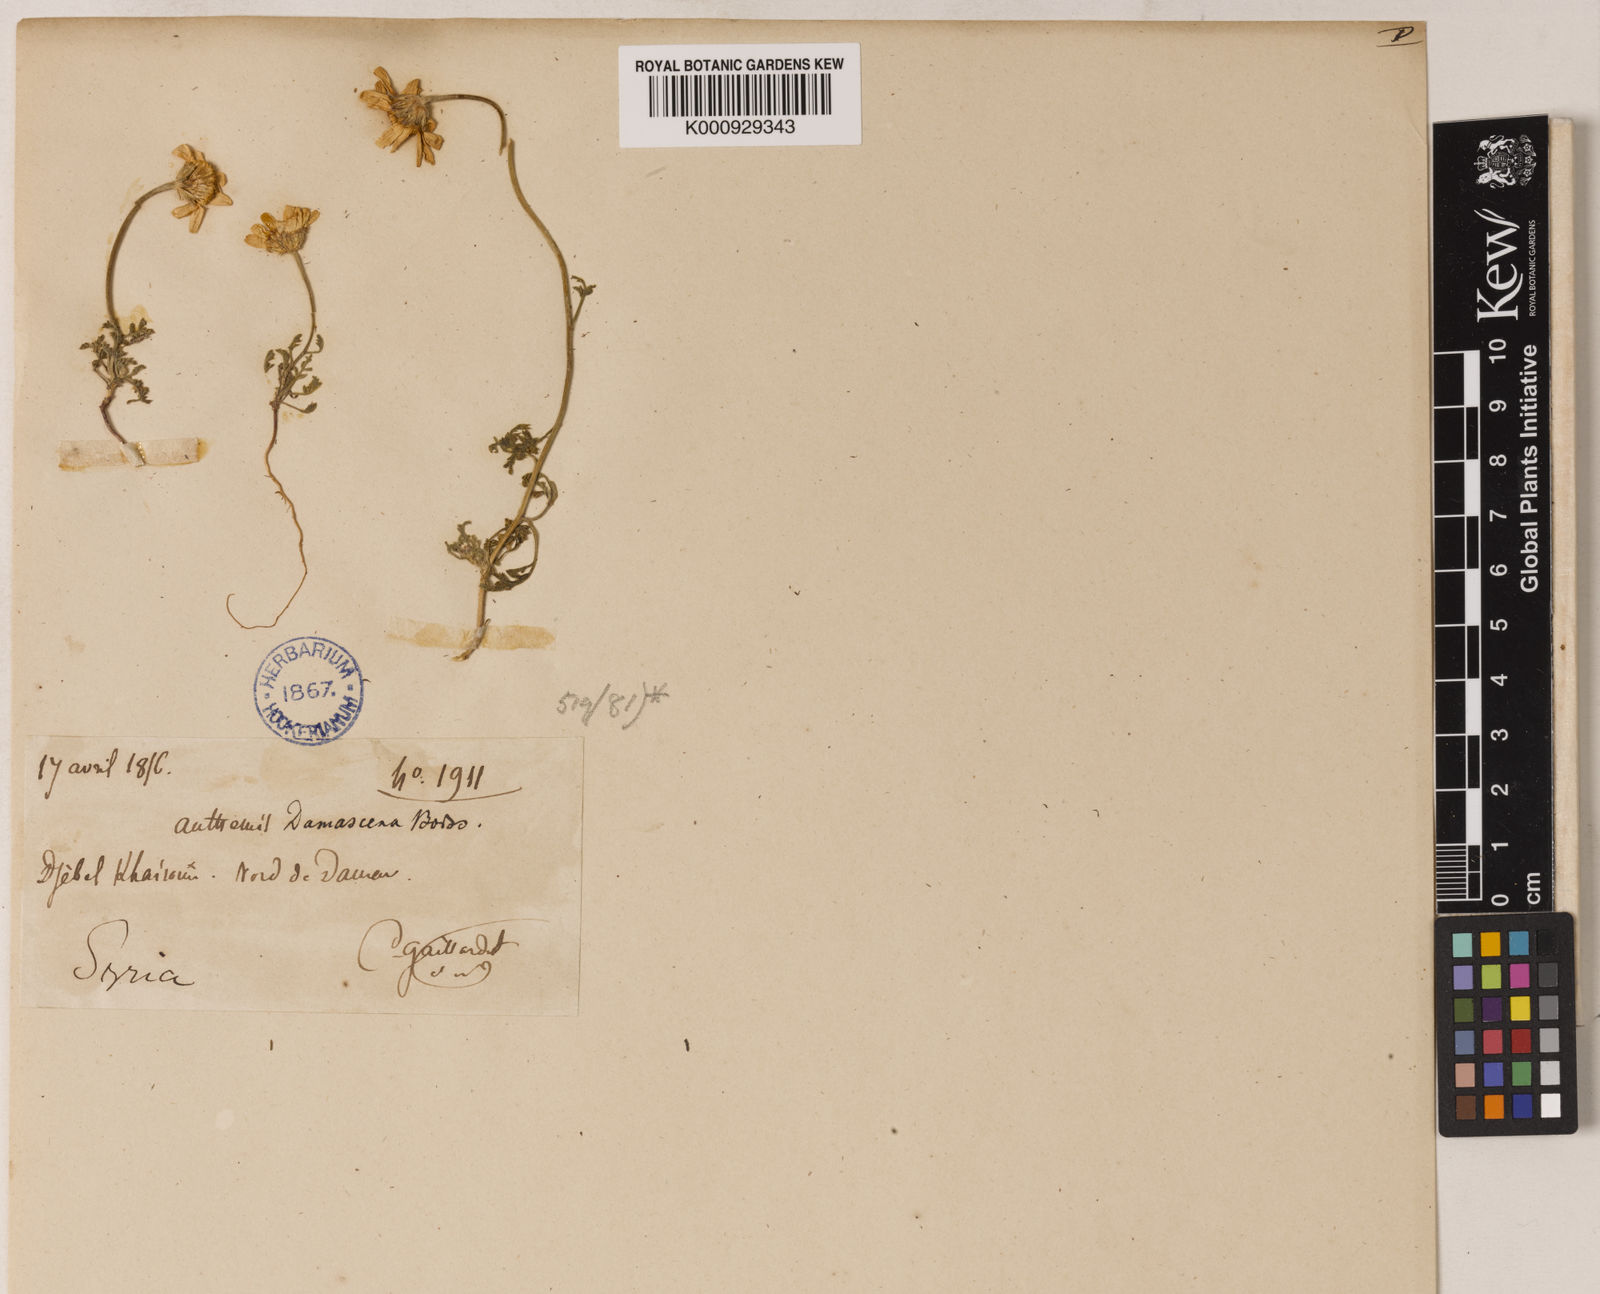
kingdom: Plantae
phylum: Tracheophyta
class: Magnoliopsida
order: Asterales
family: Asteraceae
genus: Anthemis
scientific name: Anthemis haussknechtii
